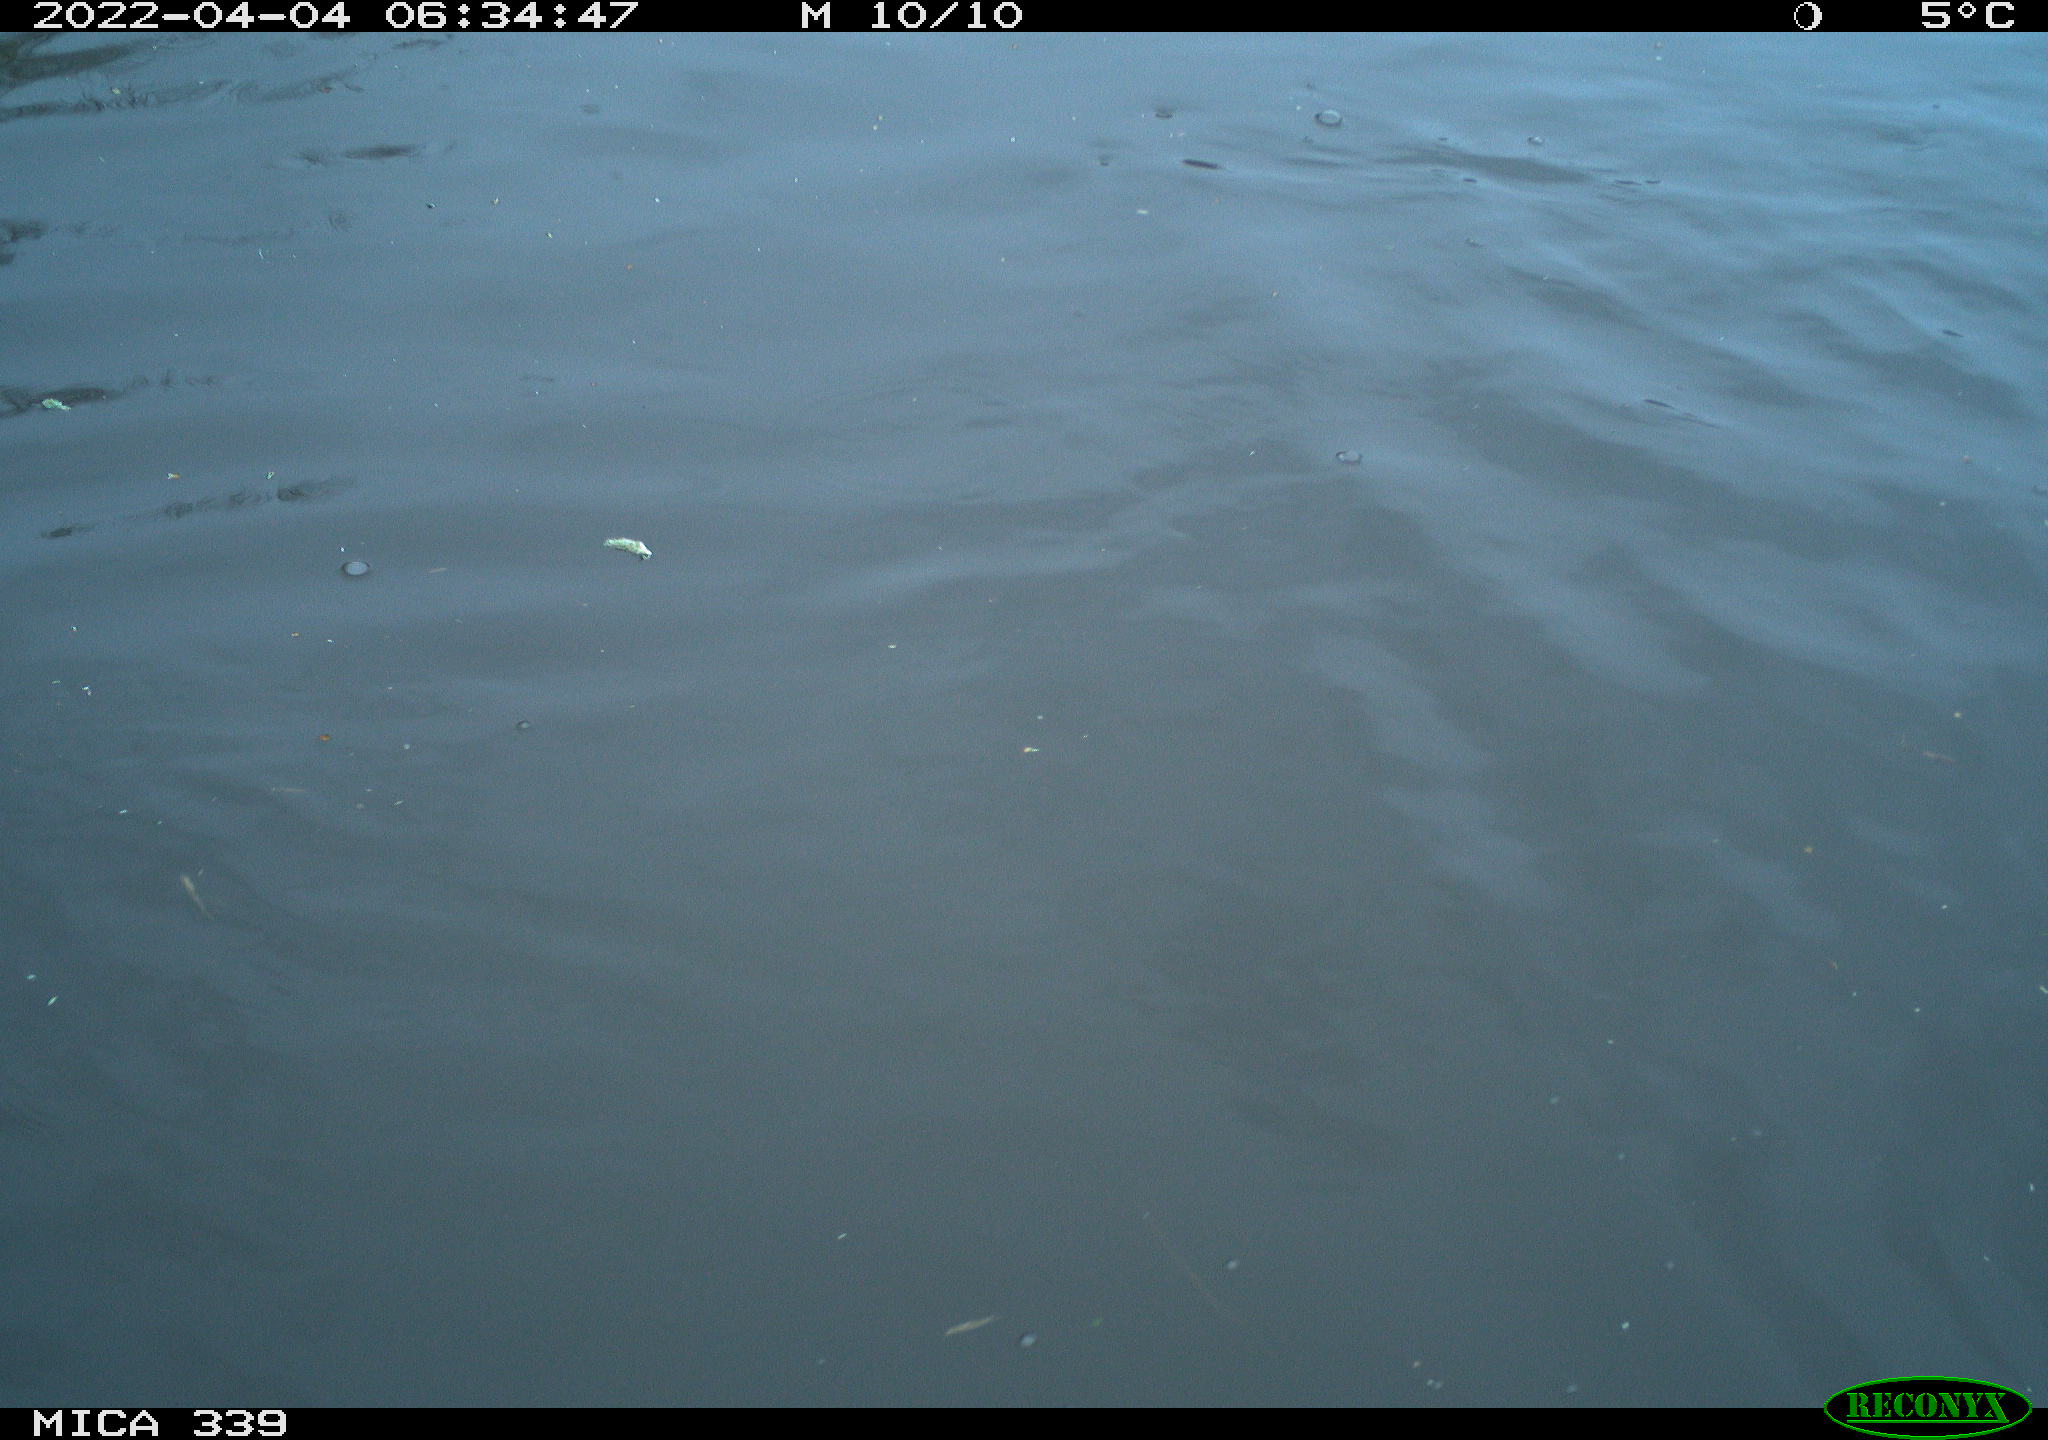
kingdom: Animalia
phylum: Chordata
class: Aves
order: Suliformes
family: Phalacrocoracidae
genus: Phalacrocorax
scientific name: Phalacrocorax carbo
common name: Great cormorant
